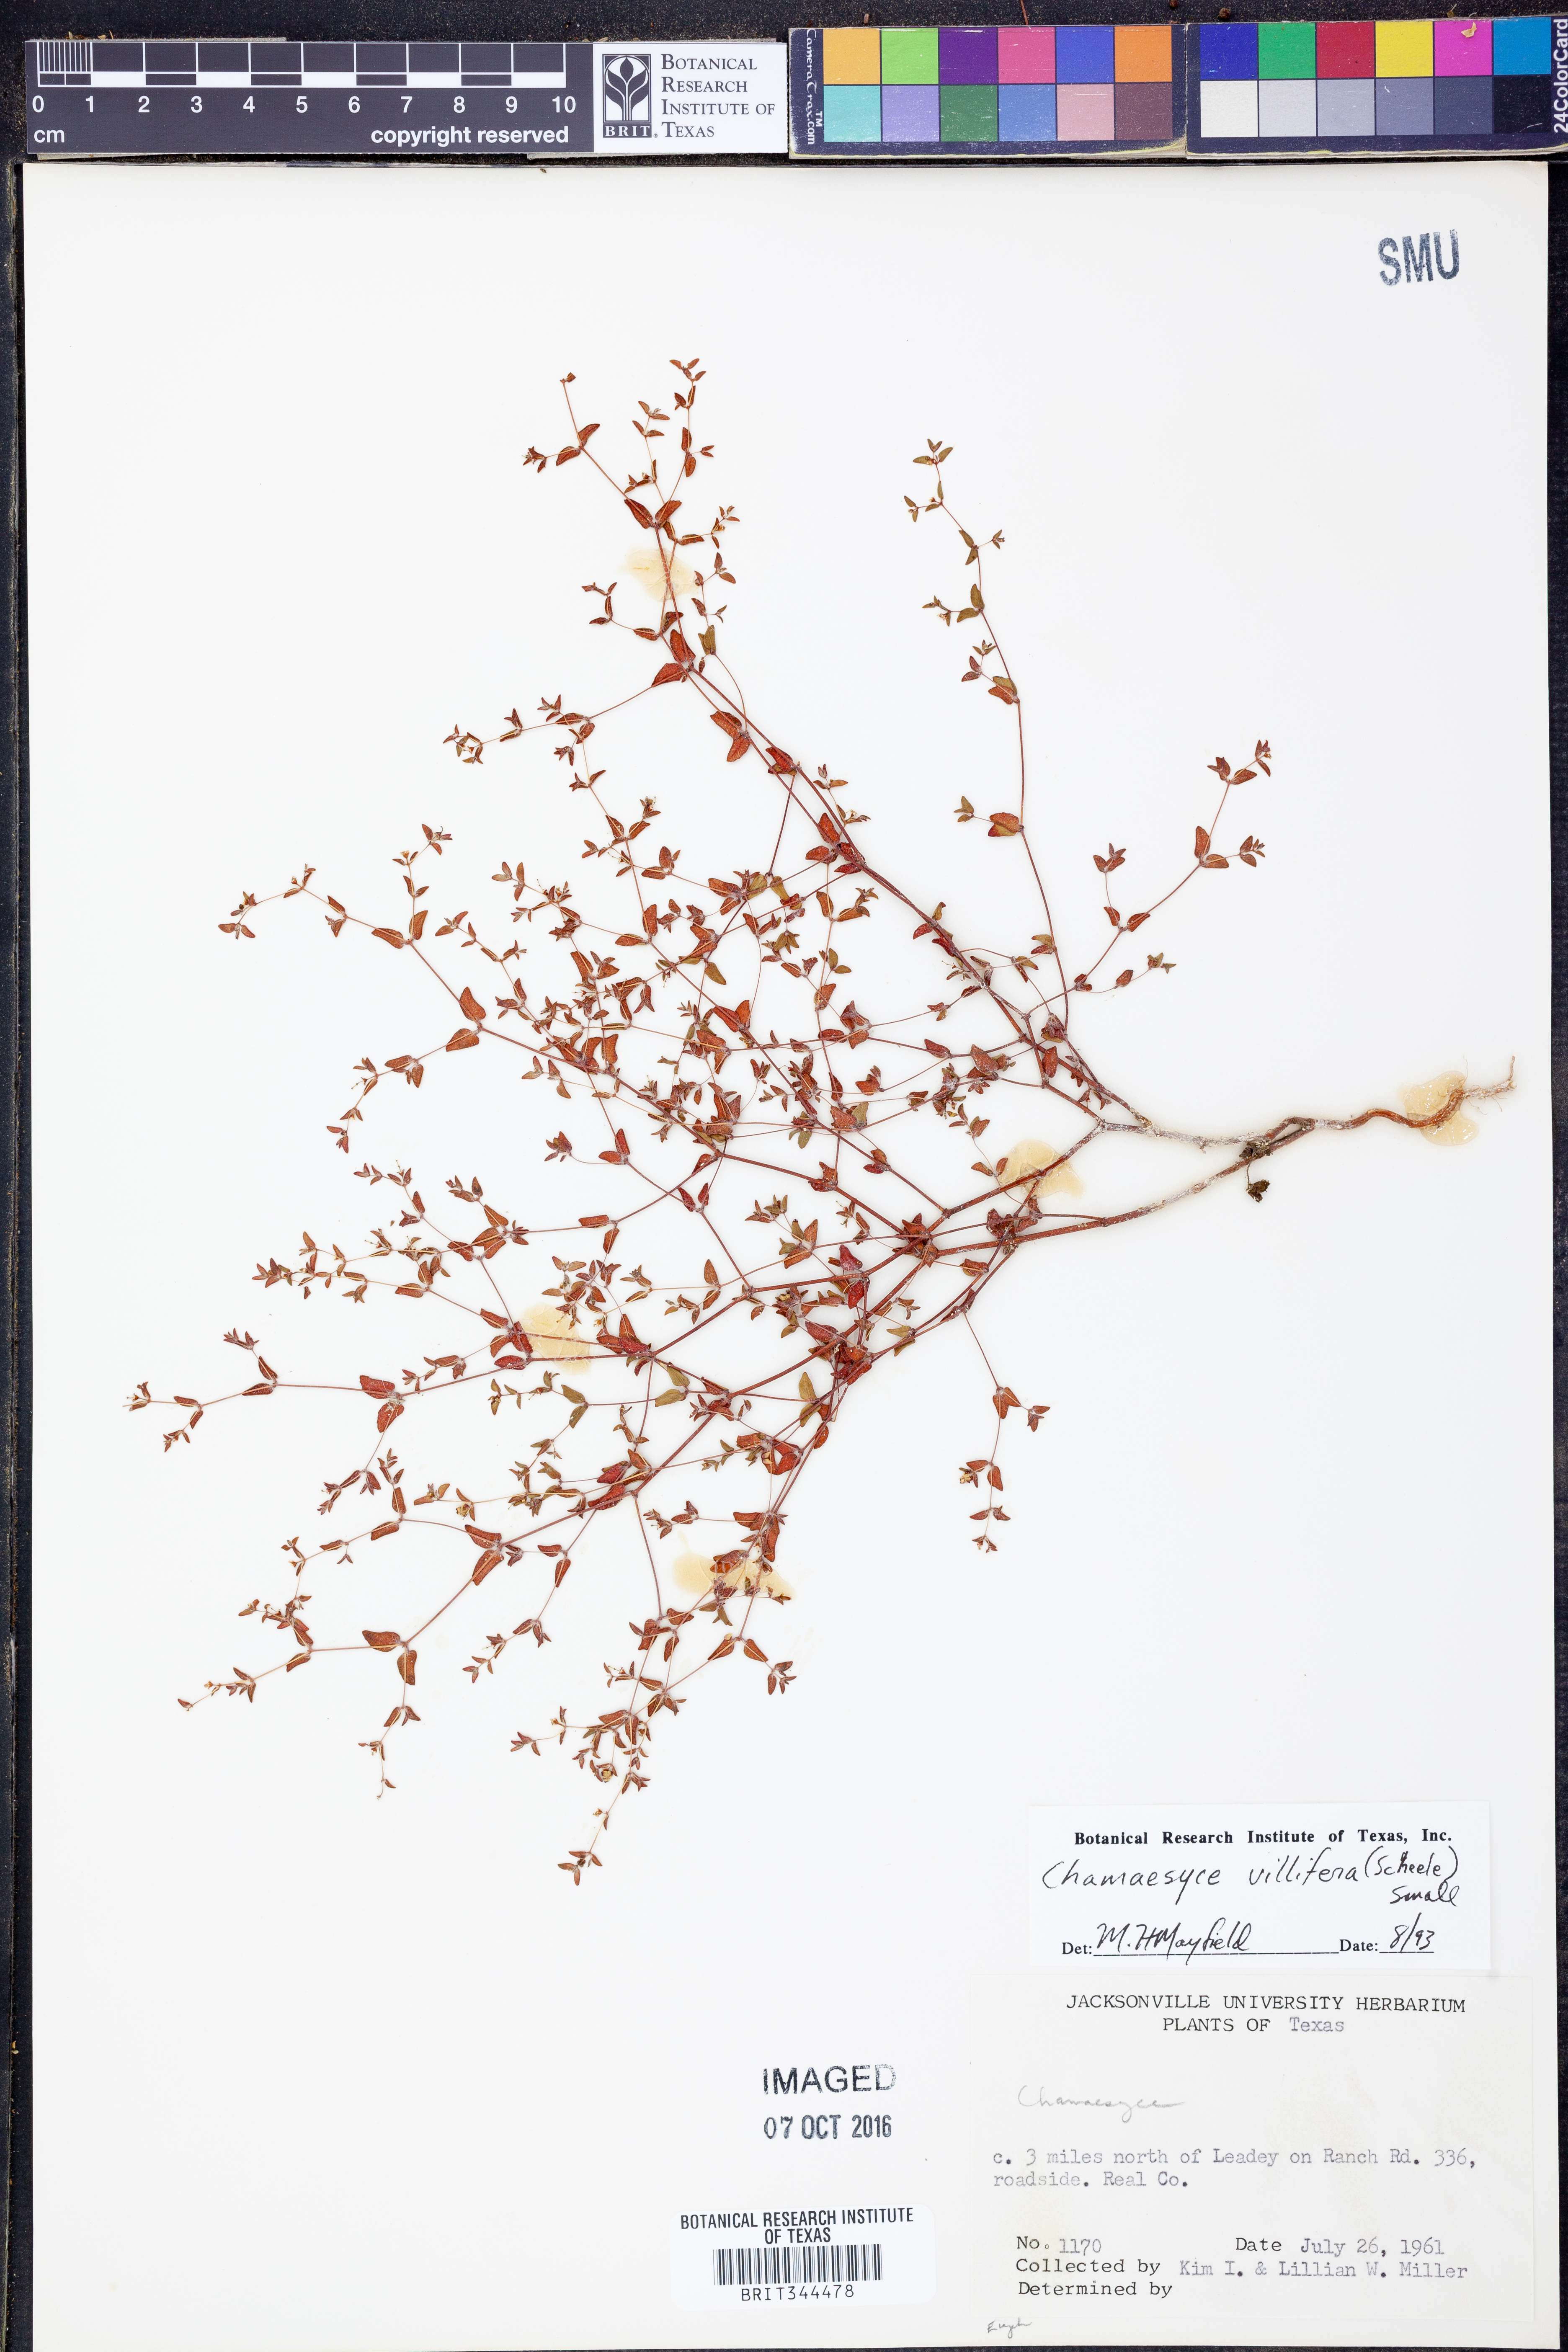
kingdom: Plantae
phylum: Tracheophyta
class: Magnoliopsida
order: Malpighiales
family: Euphorbiaceae
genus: Euphorbia
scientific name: Euphorbia villifera
